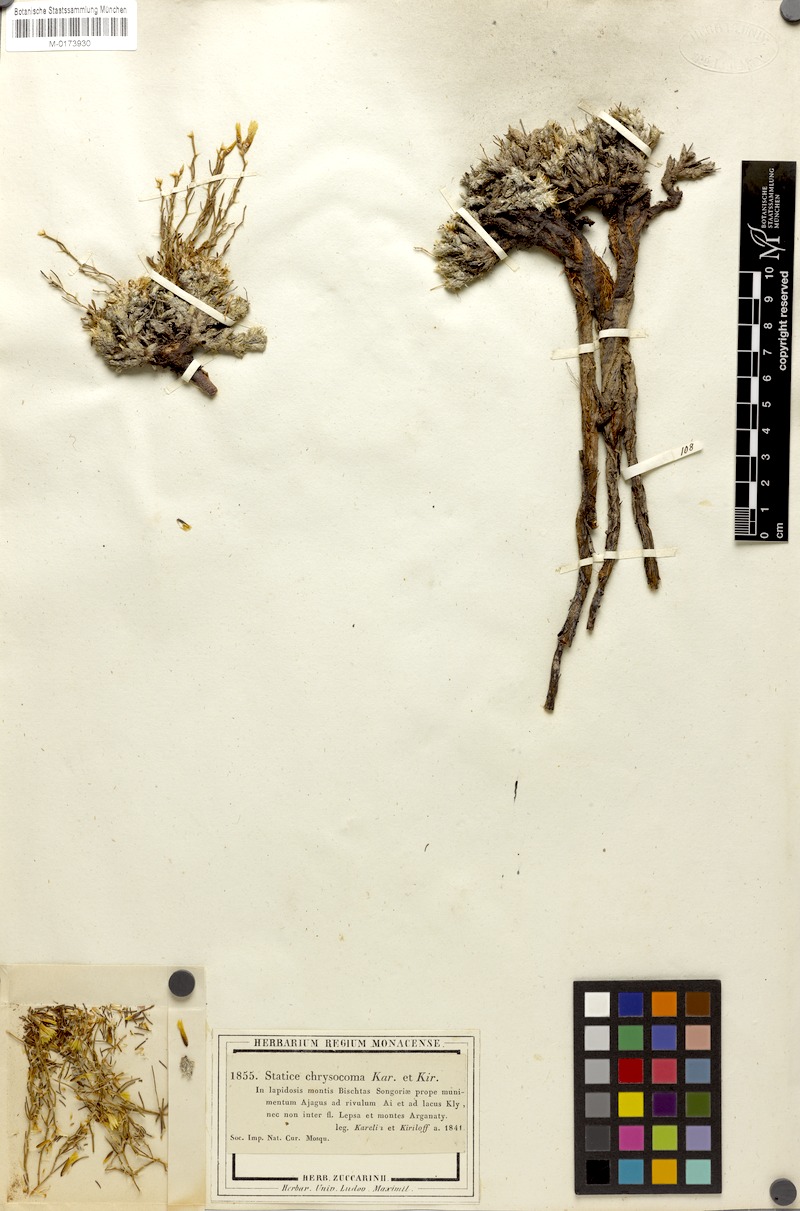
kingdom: Plantae
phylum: Tracheophyta
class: Magnoliopsida
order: Caryophyllales
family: Plumbaginaceae
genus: Limonium
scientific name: Limonium chrysocomum
